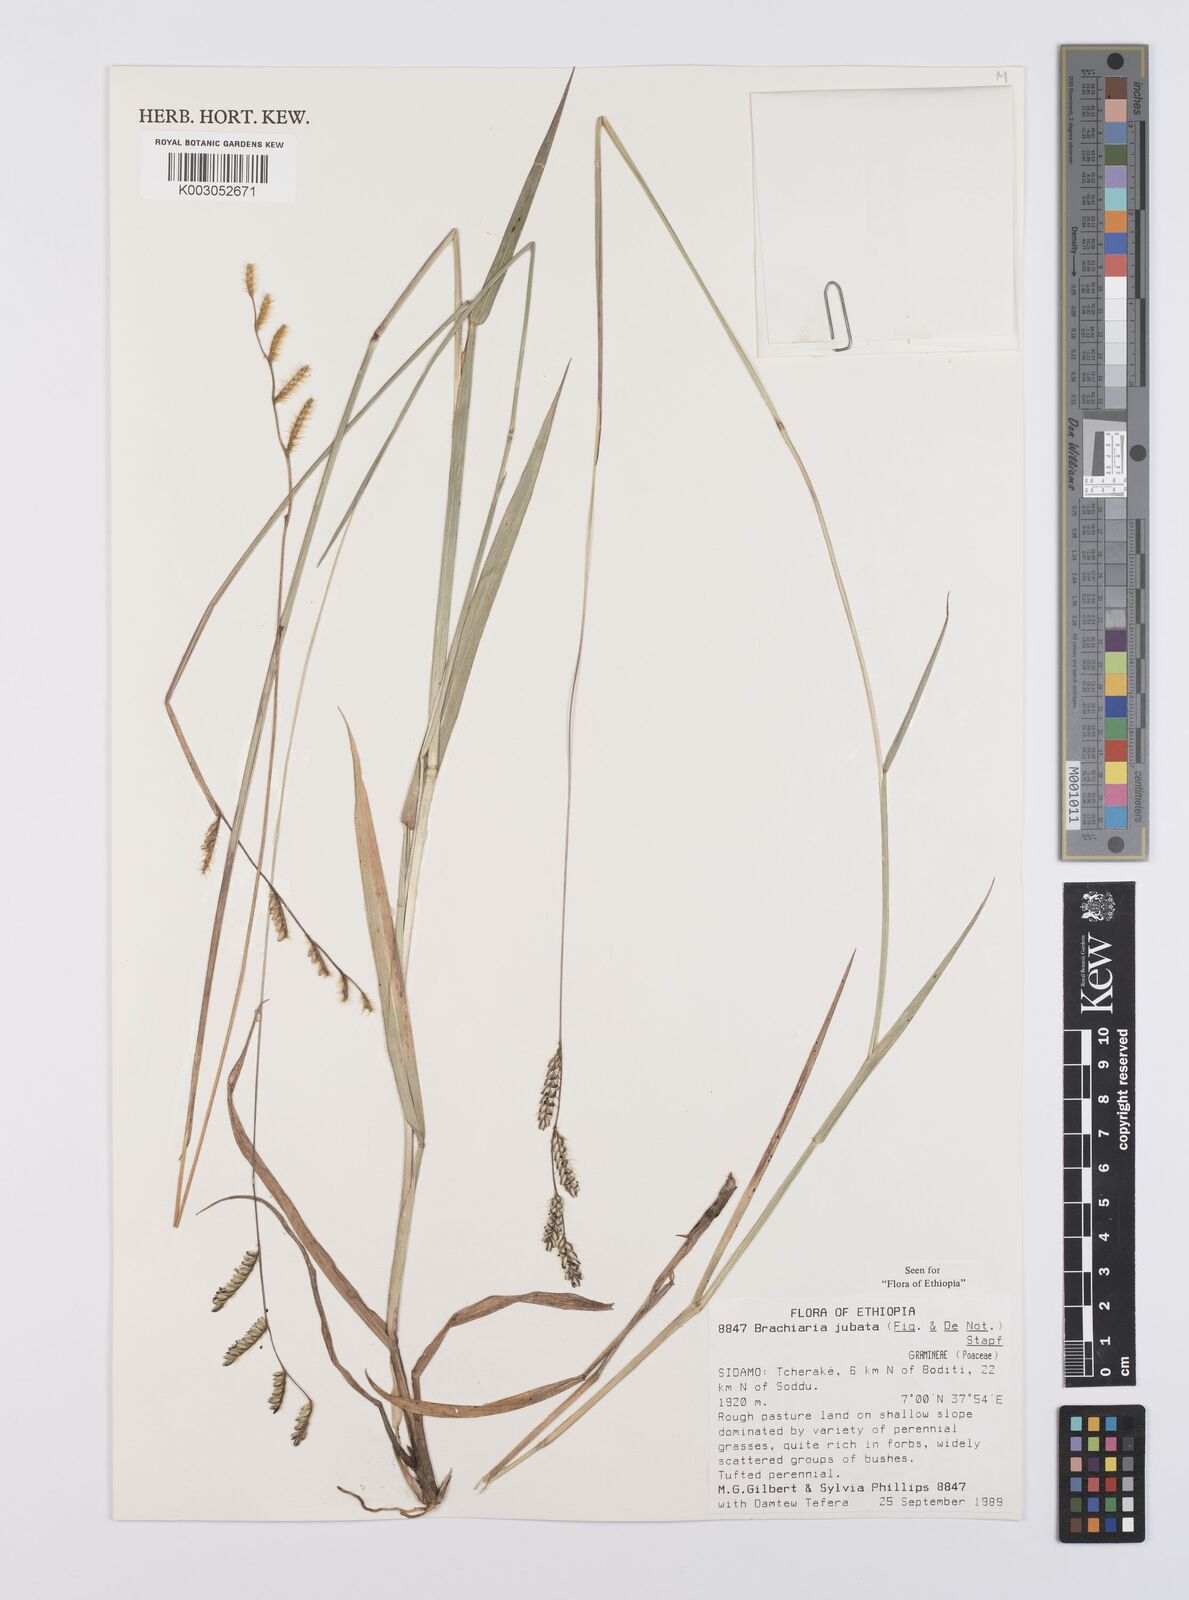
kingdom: Plantae
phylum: Tracheophyta
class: Liliopsida
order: Poales
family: Poaceae
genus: Urochloa
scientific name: Urochloa jubata
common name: Buffalograss
